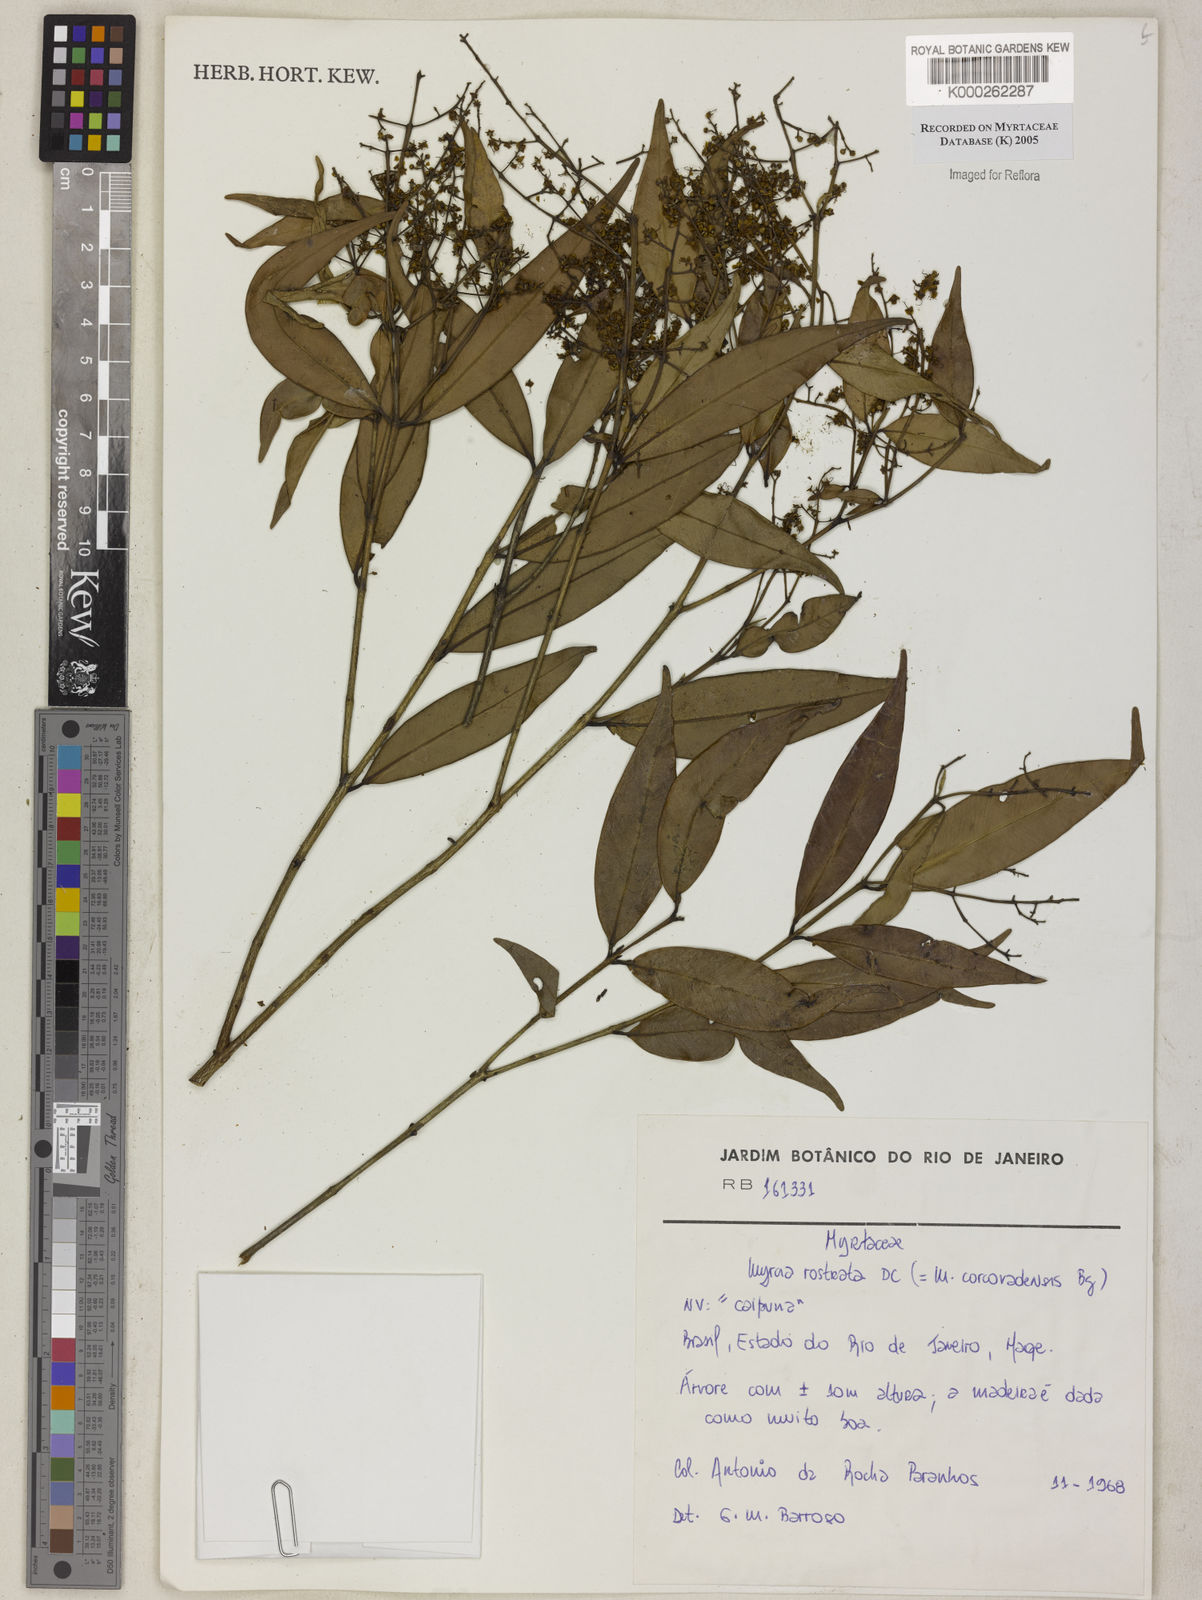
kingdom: Plantae
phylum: Tracheophyta
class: Magnoliopsida
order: Myrtales
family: Myrtaceae
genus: Myrcia
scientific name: Myrcia splendens
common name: Surinam cherry
